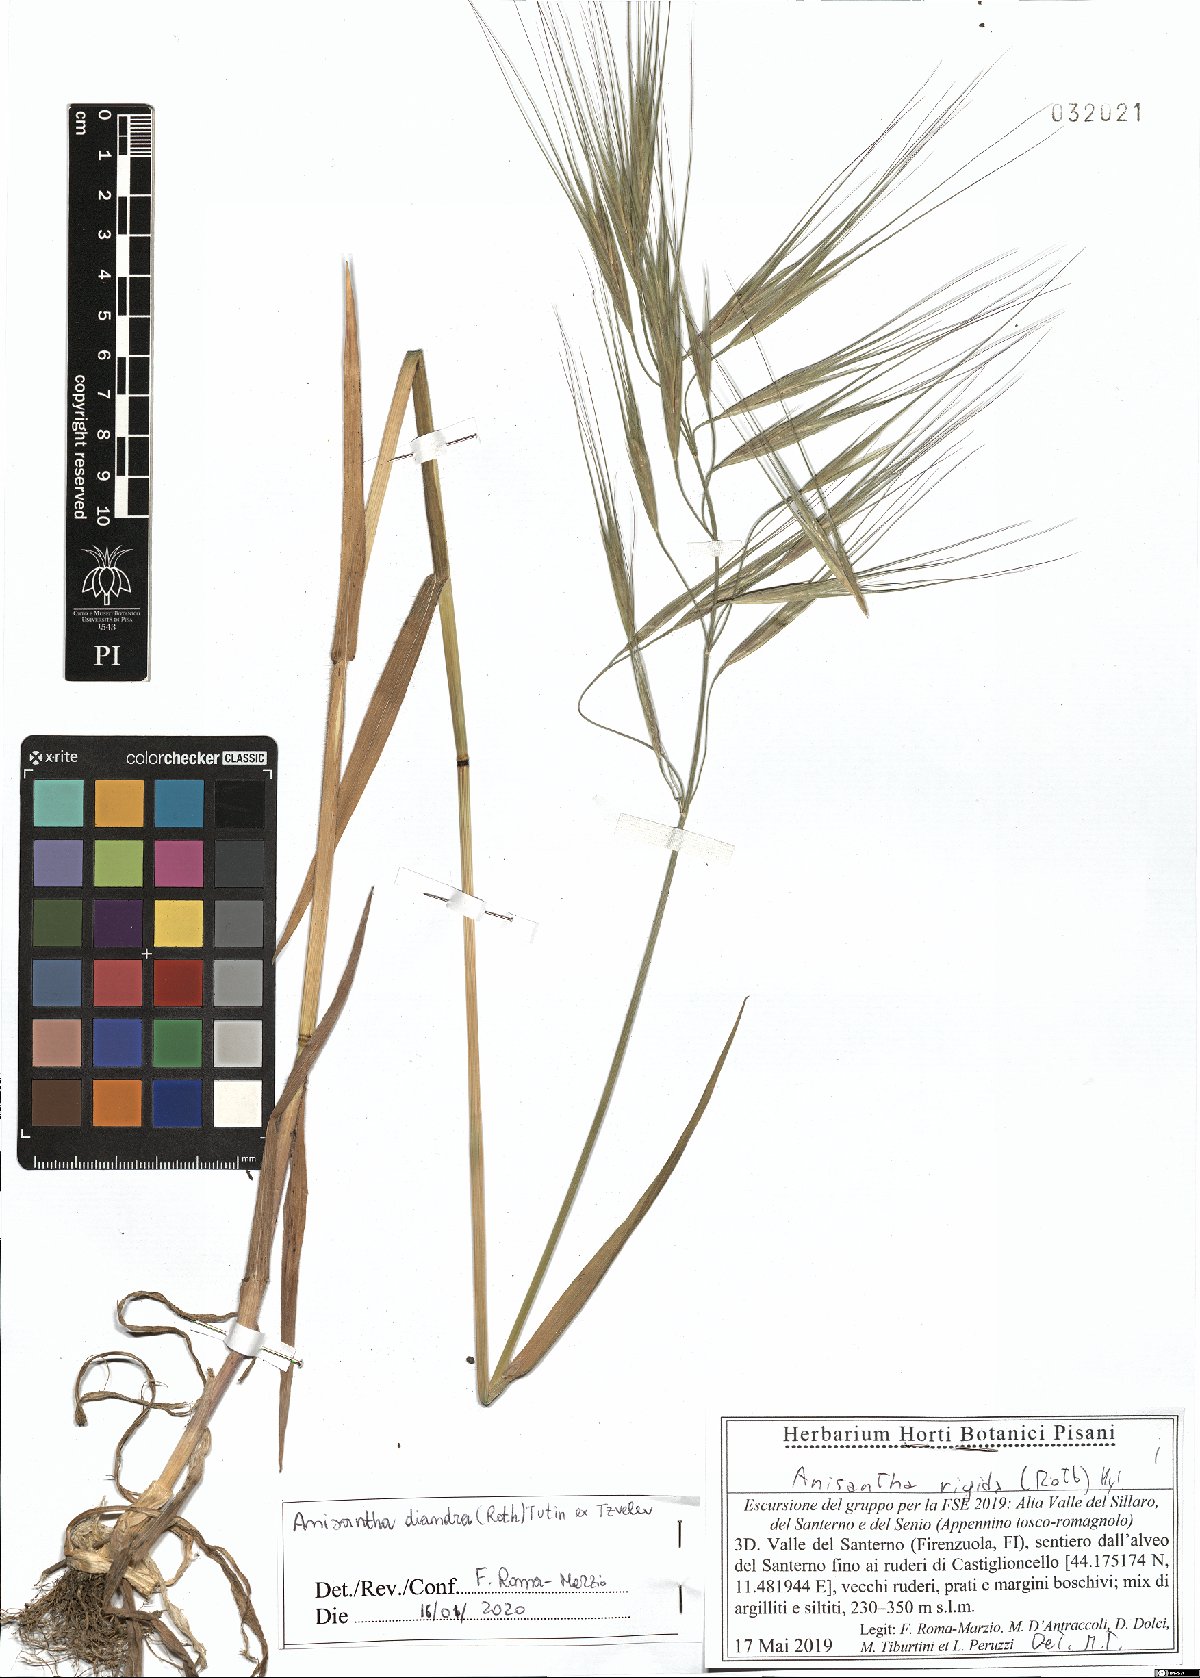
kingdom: Plantae
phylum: Tracheophyta
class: Liliopsida
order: Poales
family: Poaceae
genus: Bromus
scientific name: Bromus diandrus
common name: Ripgut brome
